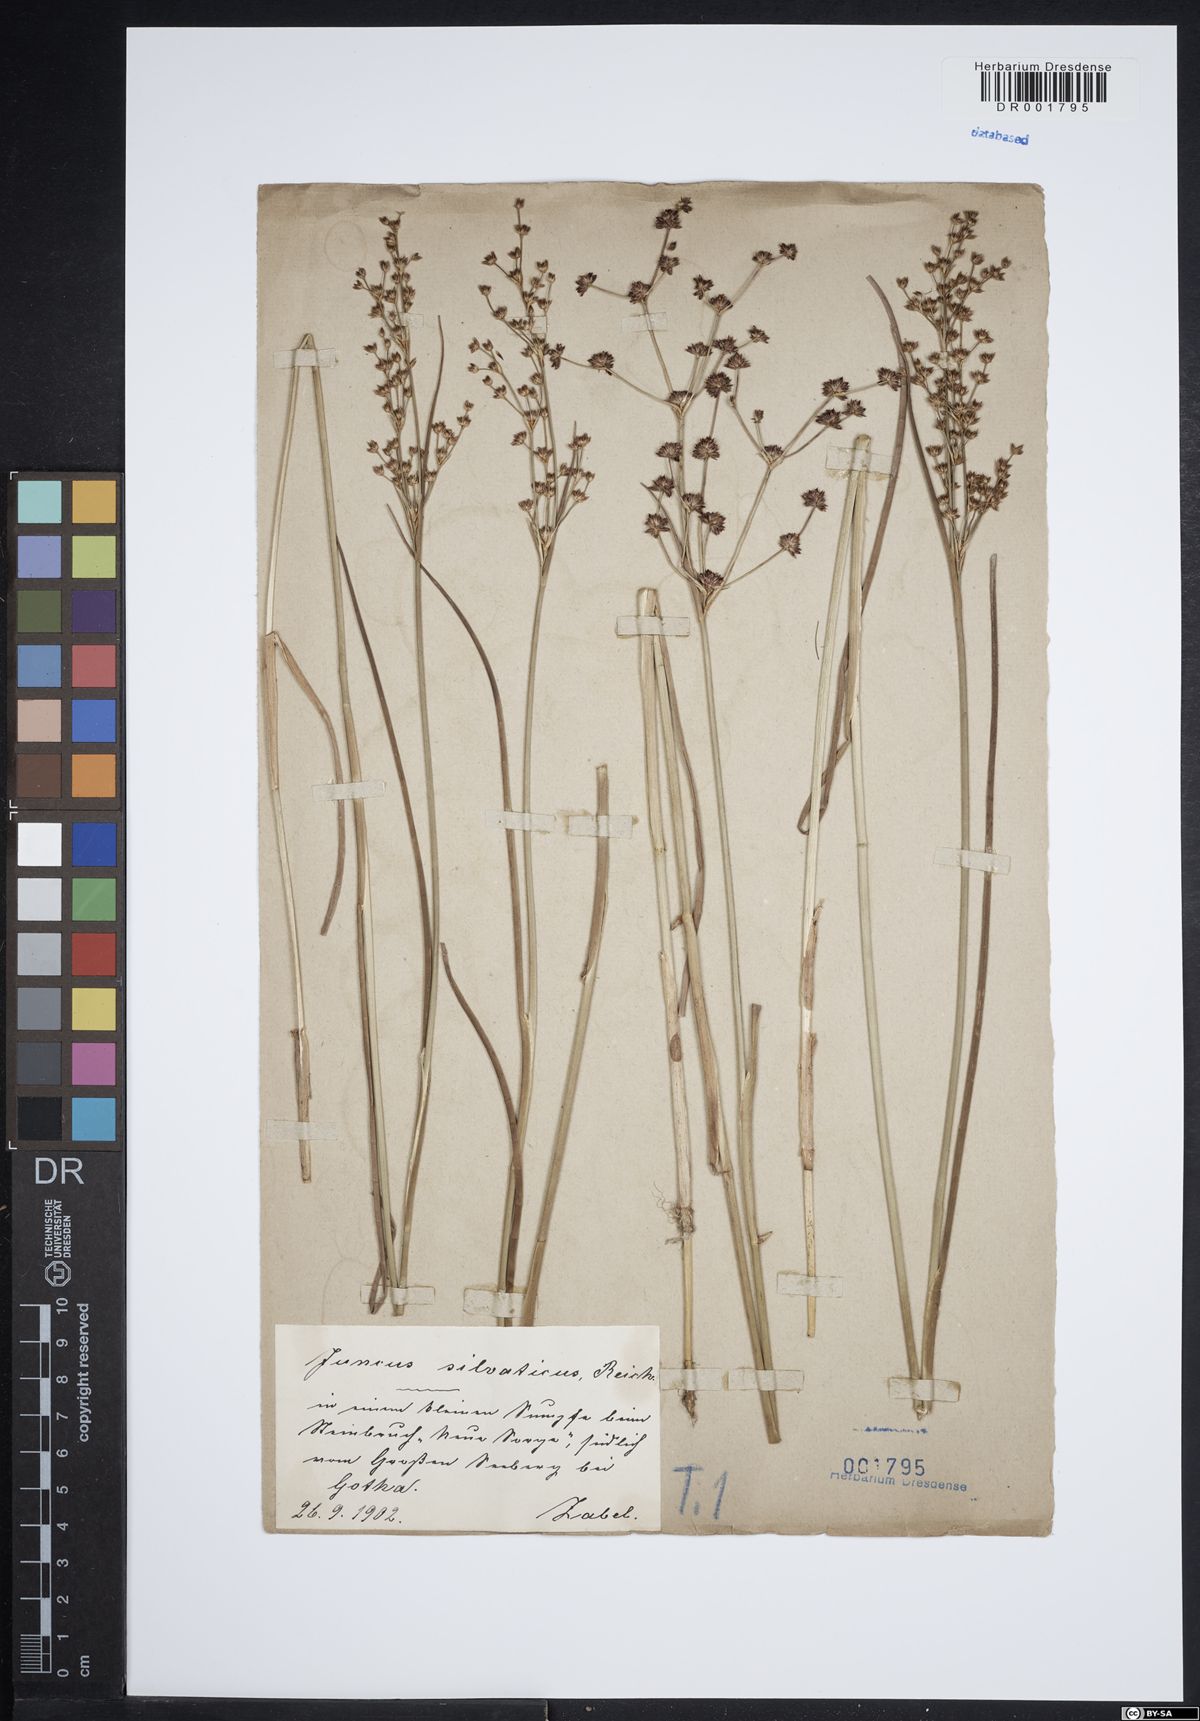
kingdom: Plantae
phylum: Tracheophyta
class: Liliopsida
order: Poales
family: Juncaceae
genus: Juncus
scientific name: Juncus acutiflorus
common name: Sharp-flowered rush
